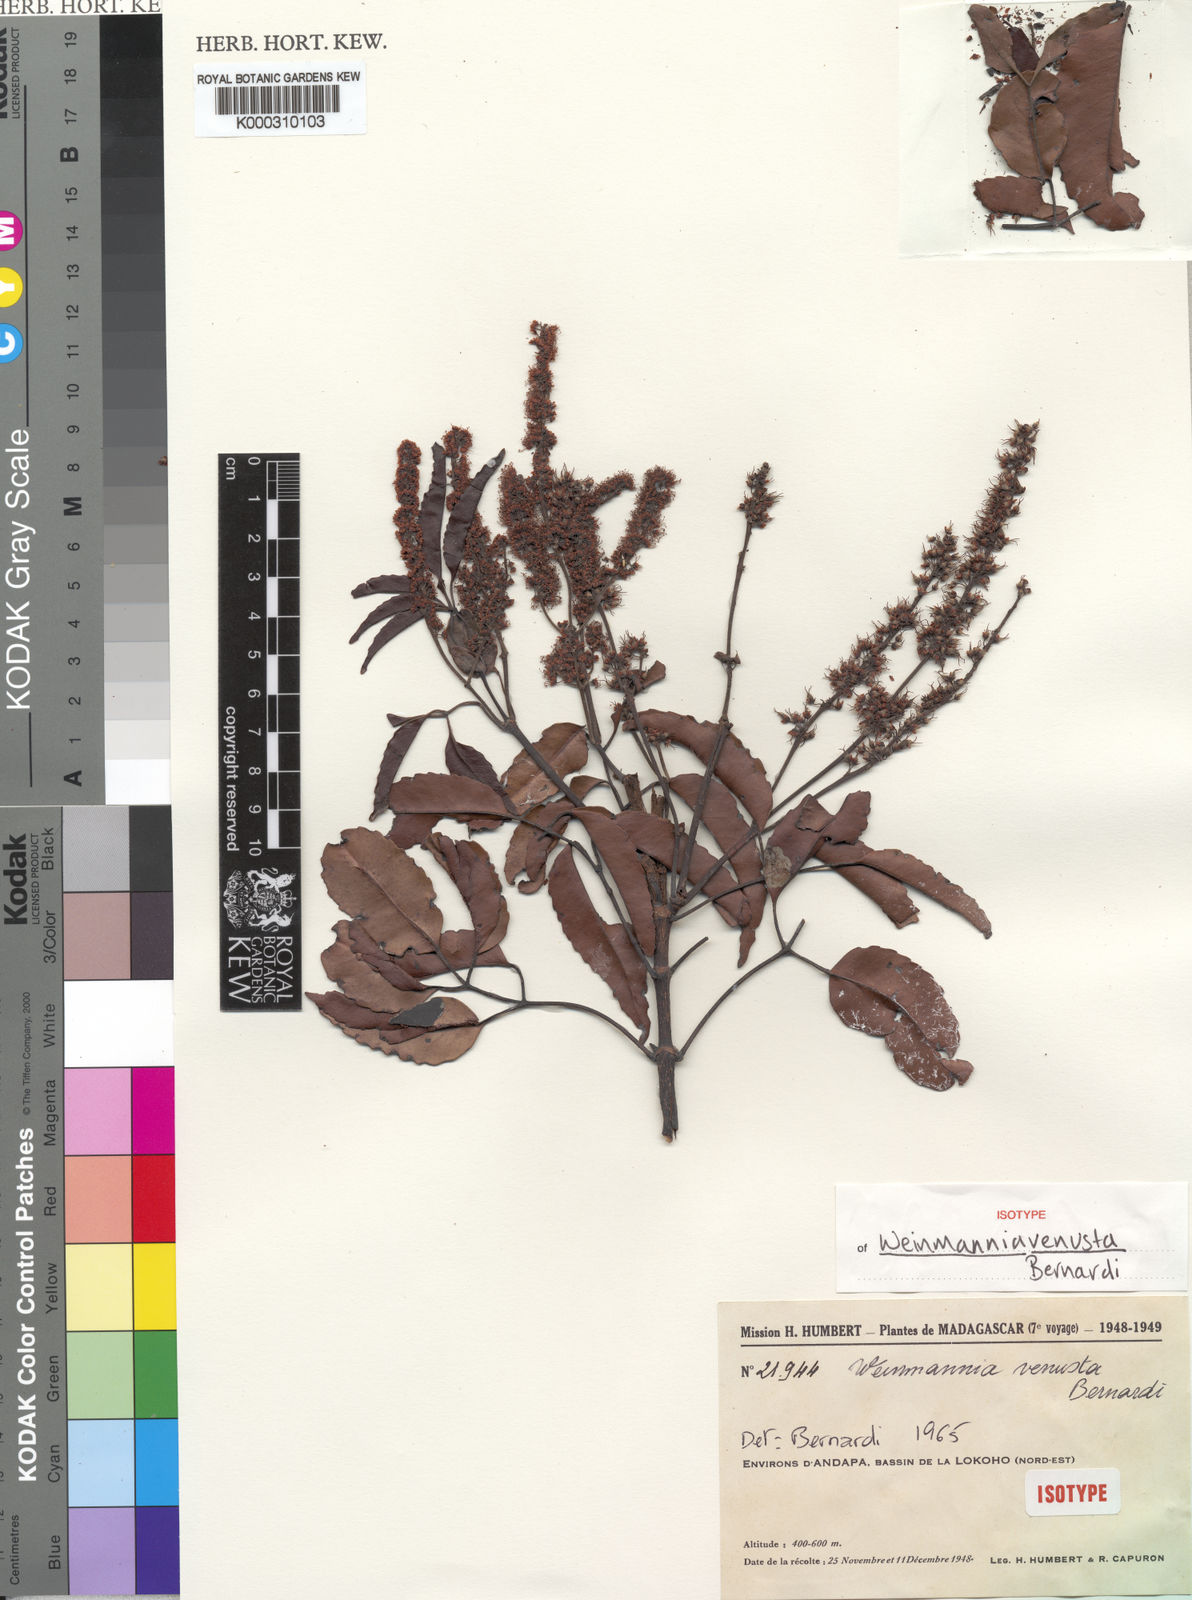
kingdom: Plantae
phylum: Tracheophyta
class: Magnoliopsida
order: Oxalidales
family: Cunoniaceae
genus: Pterophylla
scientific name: Pterophylla venusta
